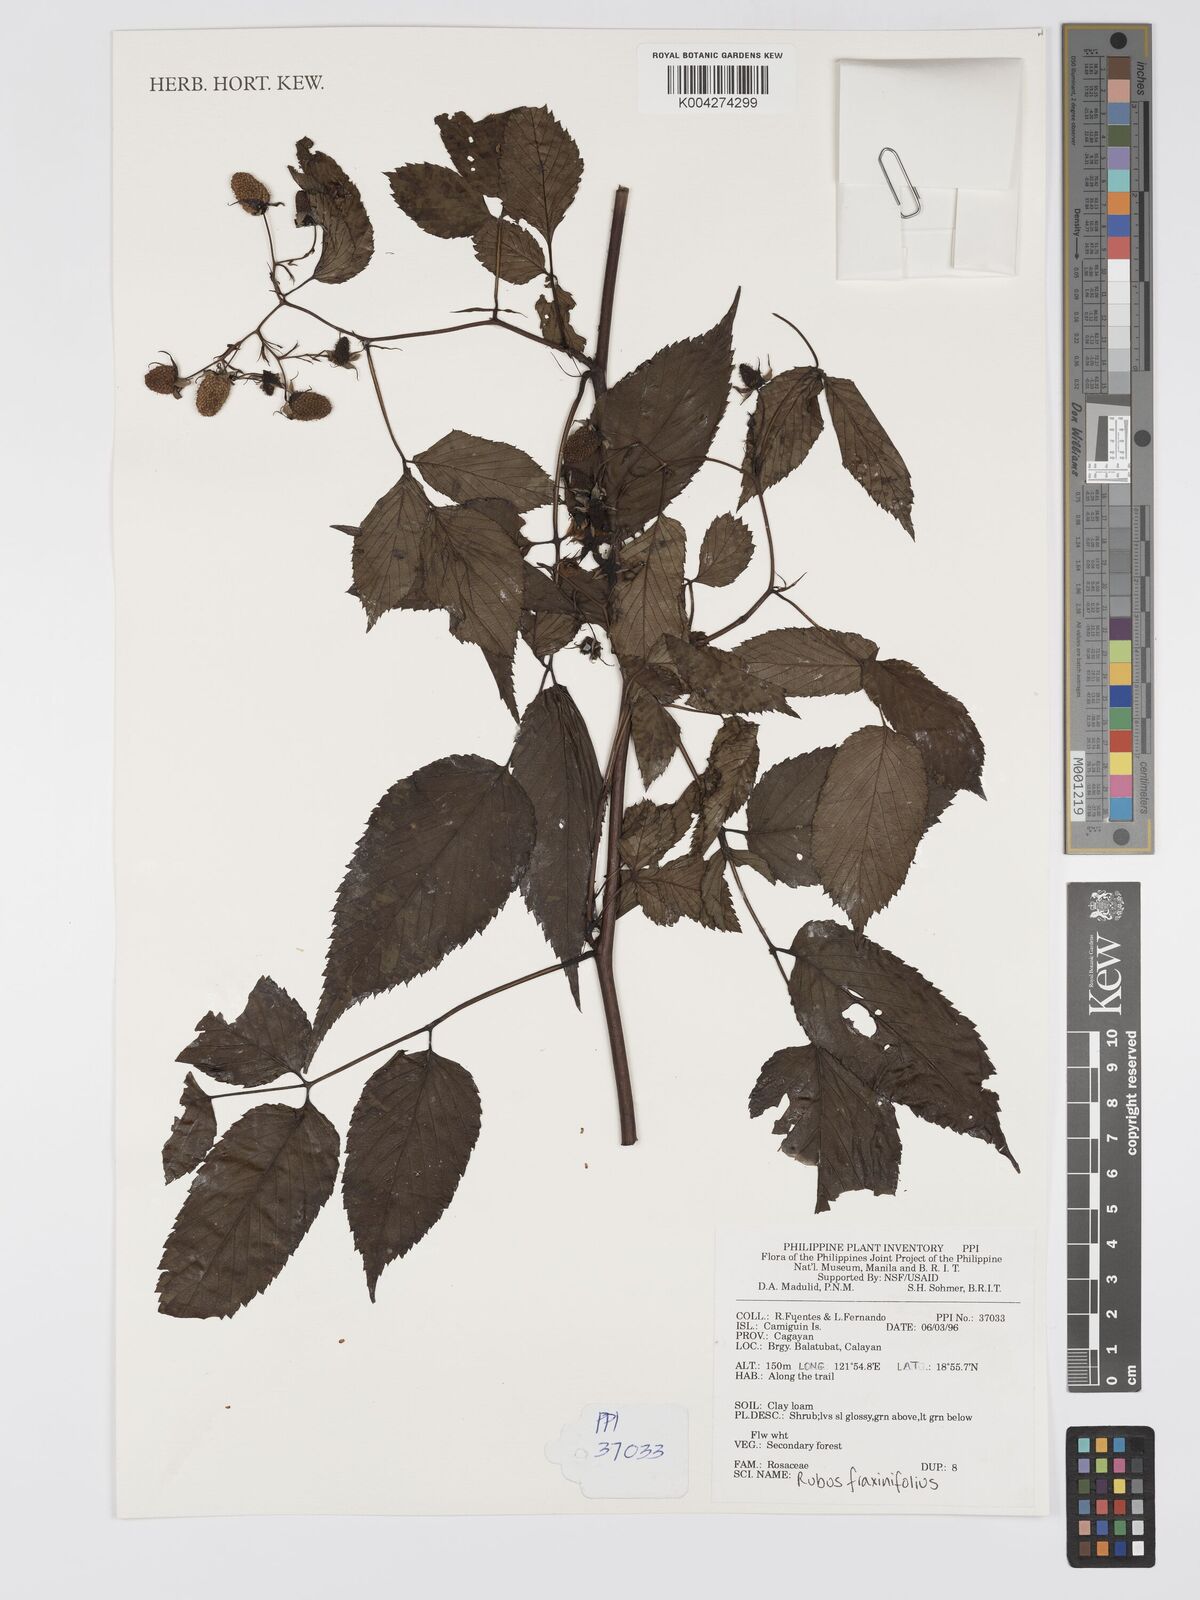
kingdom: Plantae
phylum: Tracheophyta
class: Magnoliopsida
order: Rosales
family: Rosaceae
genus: Rubus
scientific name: Rubus fraxinifolius
